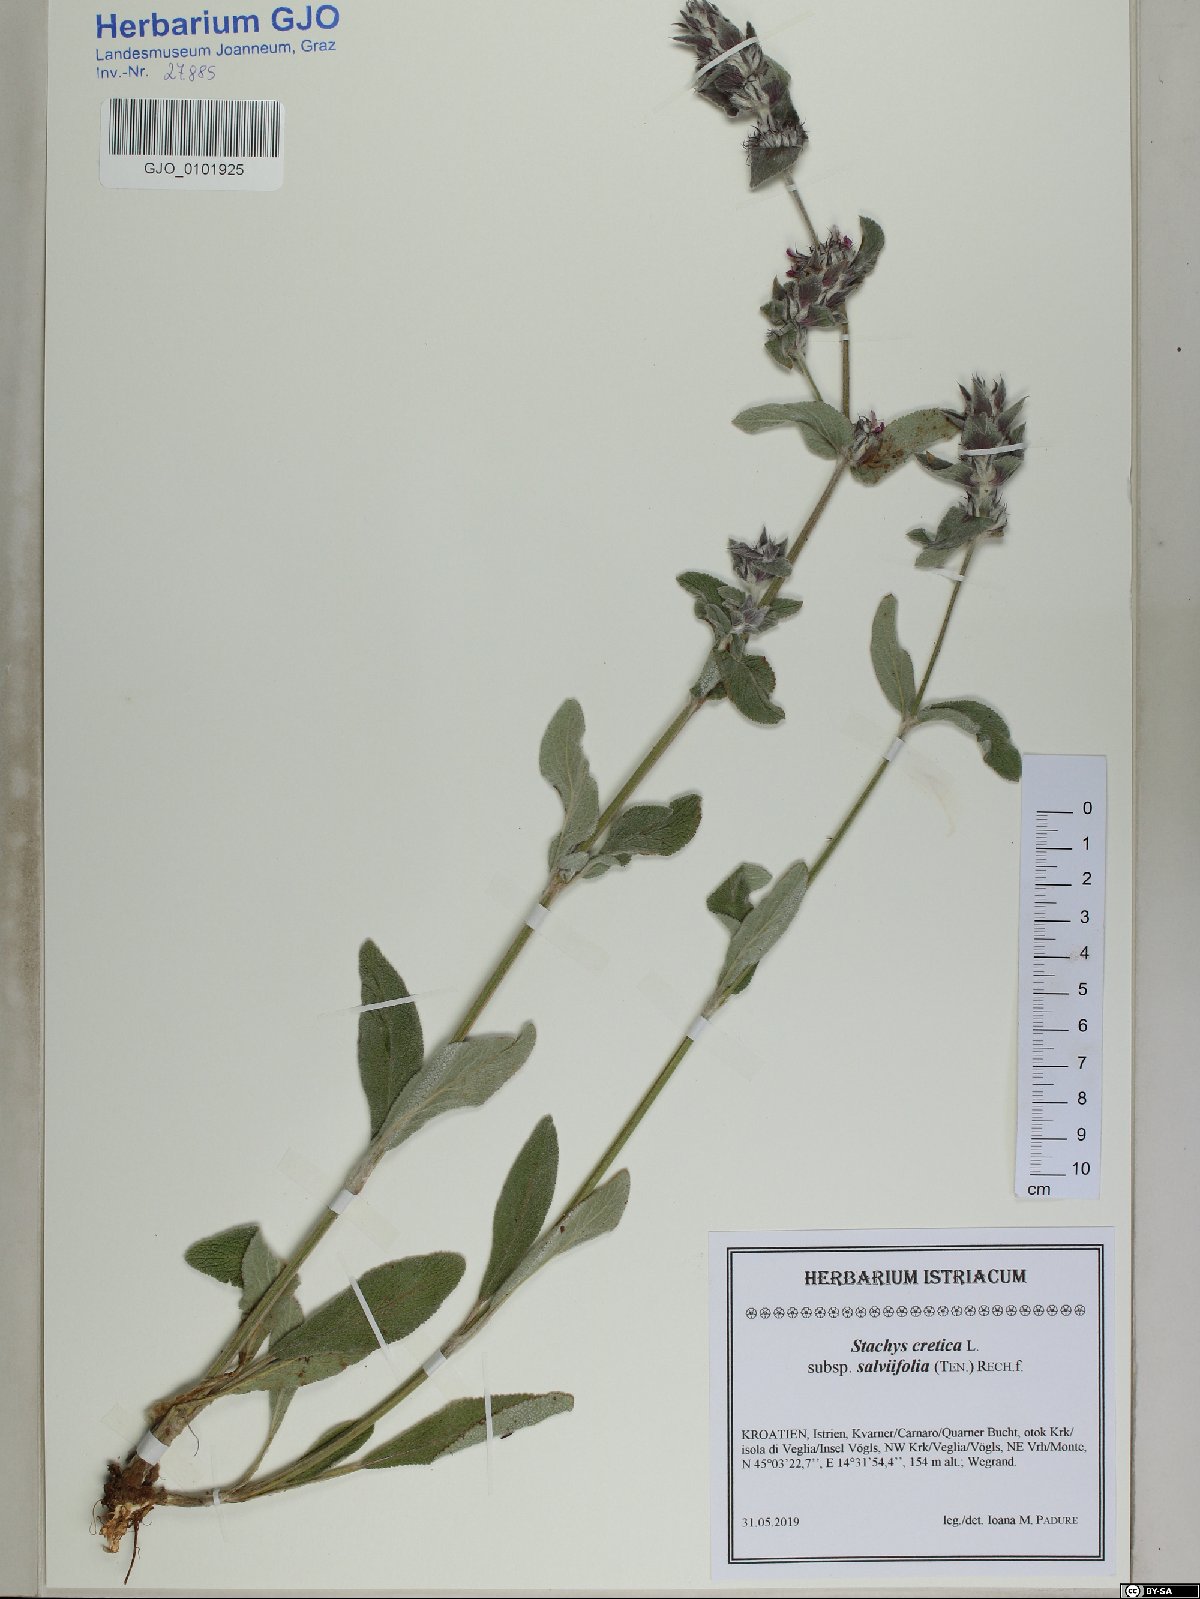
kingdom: Plantae
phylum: Tracheophyta
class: Magnoliopsida
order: Lamiales
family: Lamiaceae
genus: Stachys
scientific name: Stachys cretica
